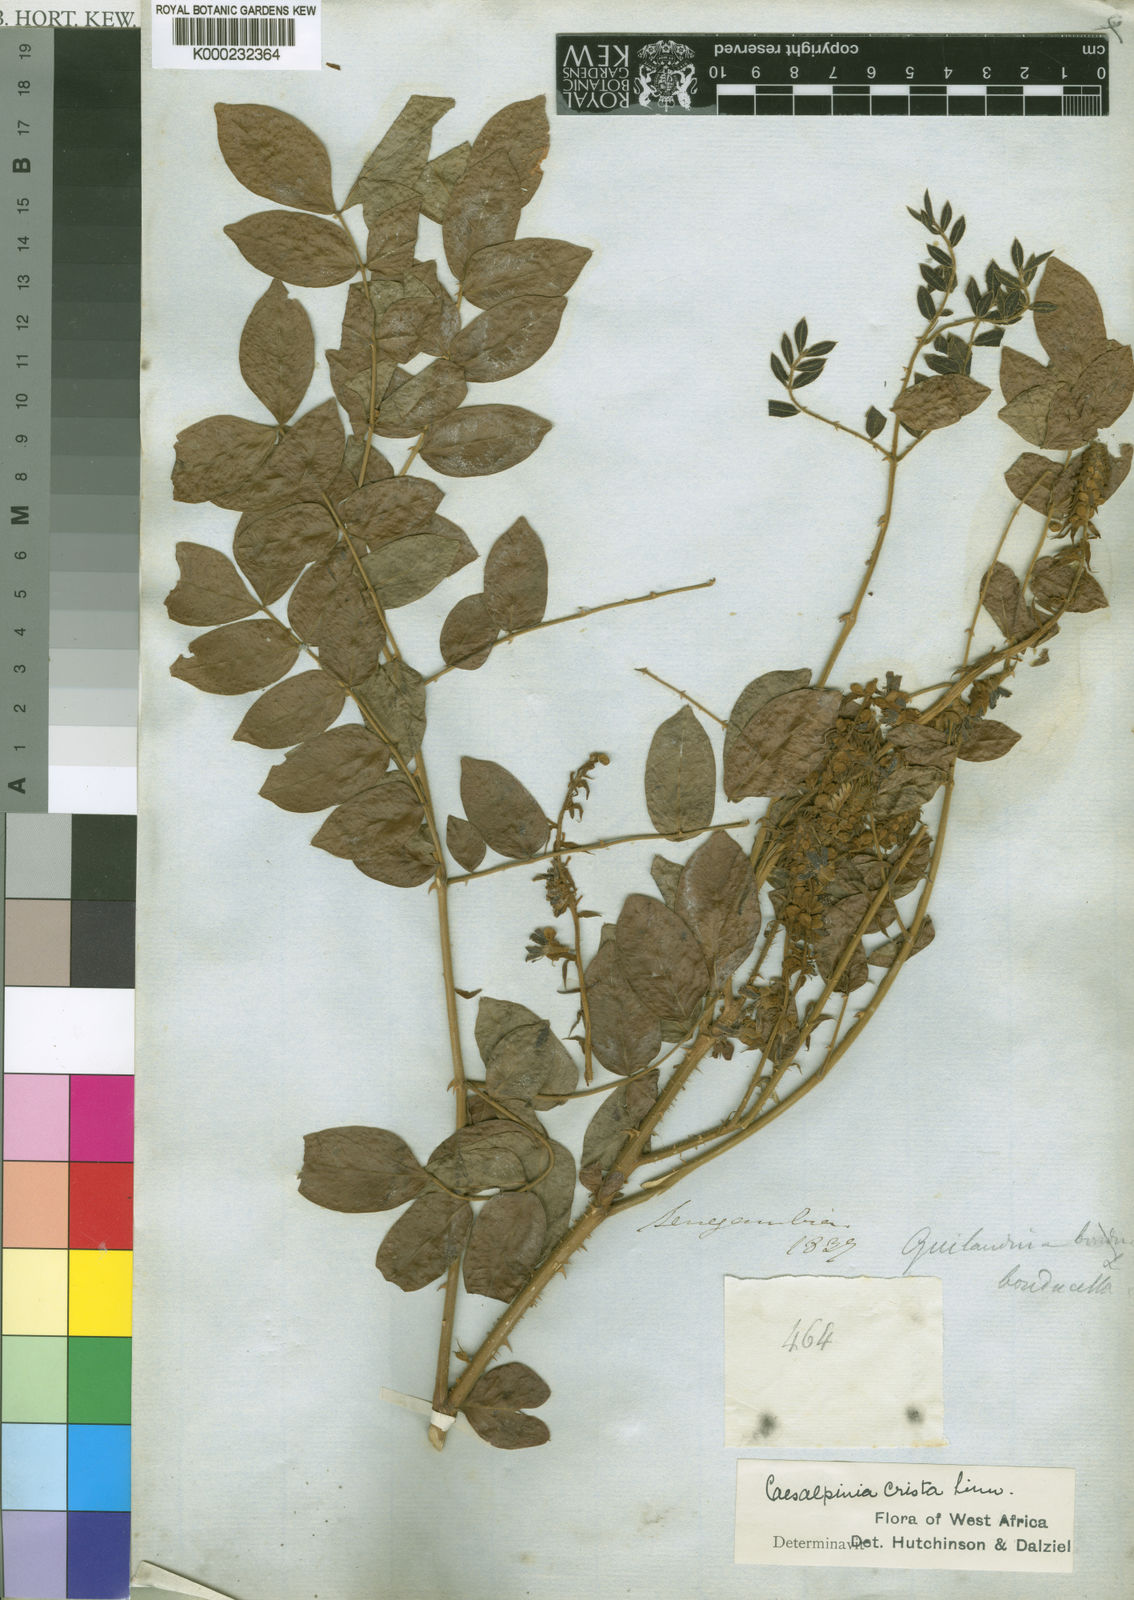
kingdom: Plantae
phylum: Tracheophyta
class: Magnoliopsida
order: Fabales
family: Fabaceae
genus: Guilandina
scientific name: Guilandina bonduc
